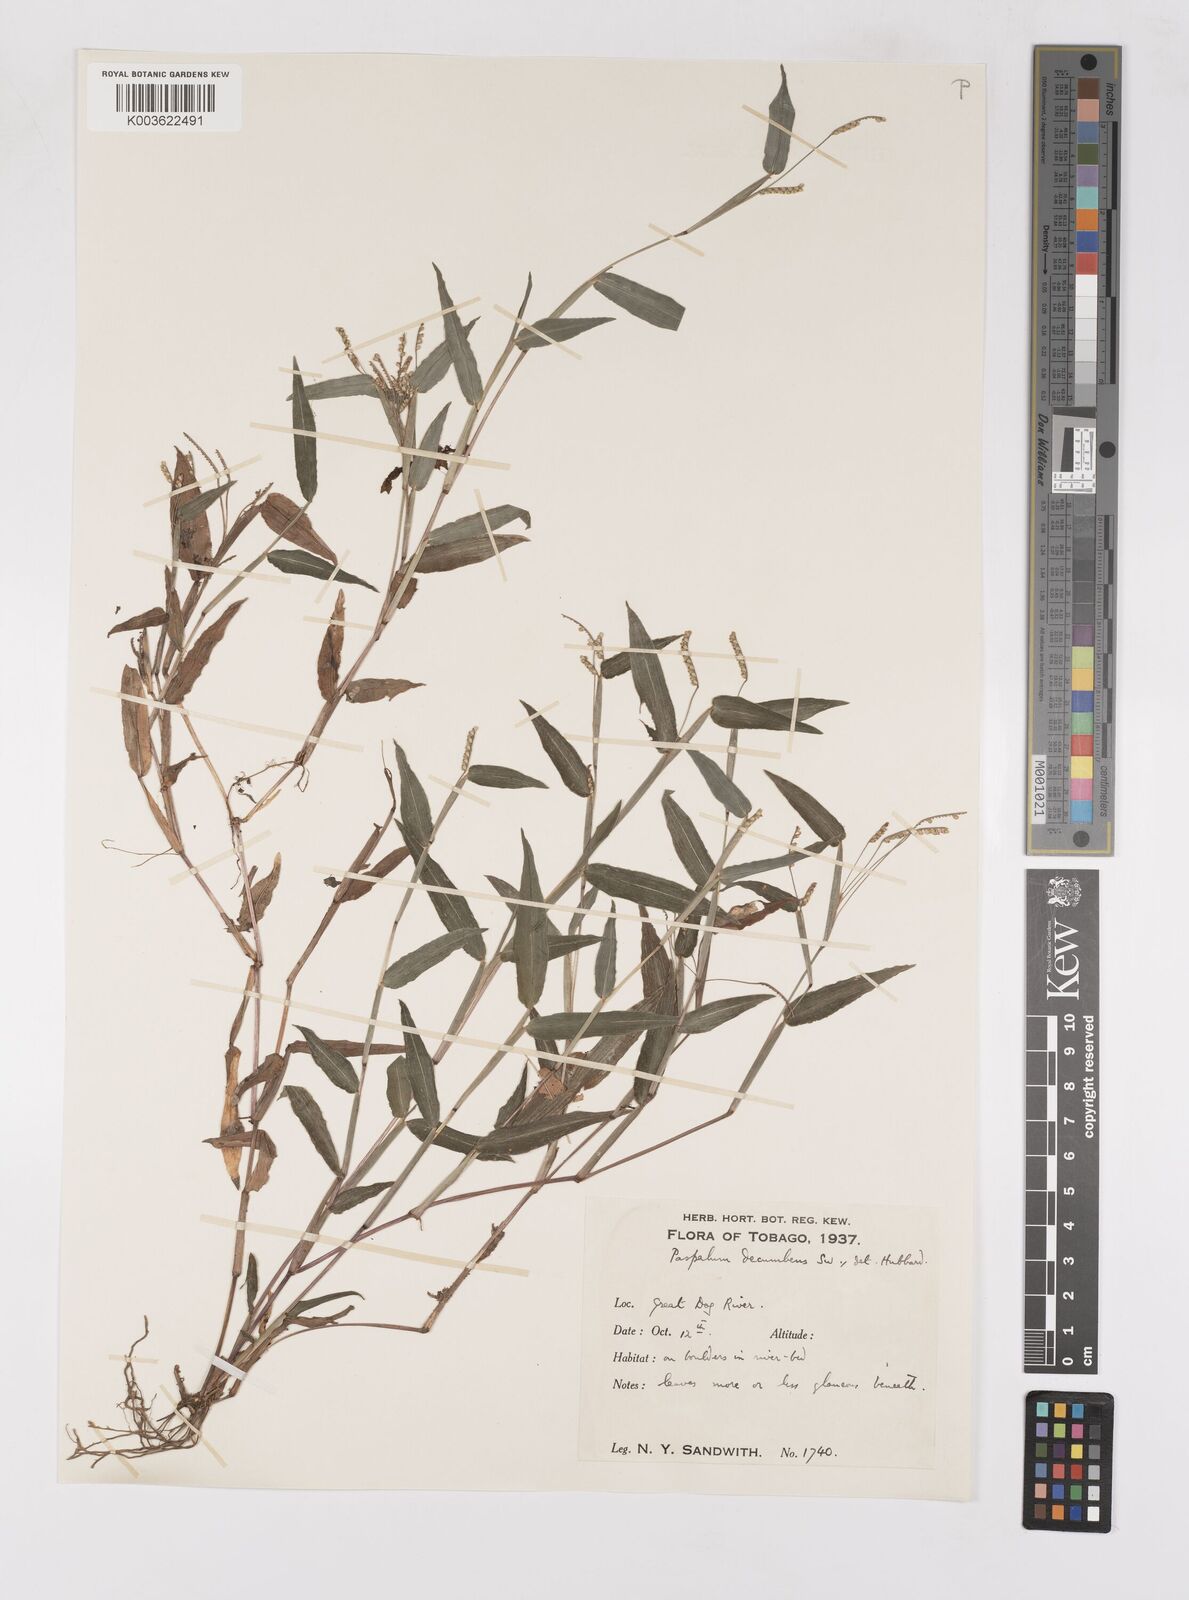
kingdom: Plantae
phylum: Tracheophyta
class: Liliopsida
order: Poales
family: Poaceae
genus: Paspalum
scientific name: Paspalum decumbens
